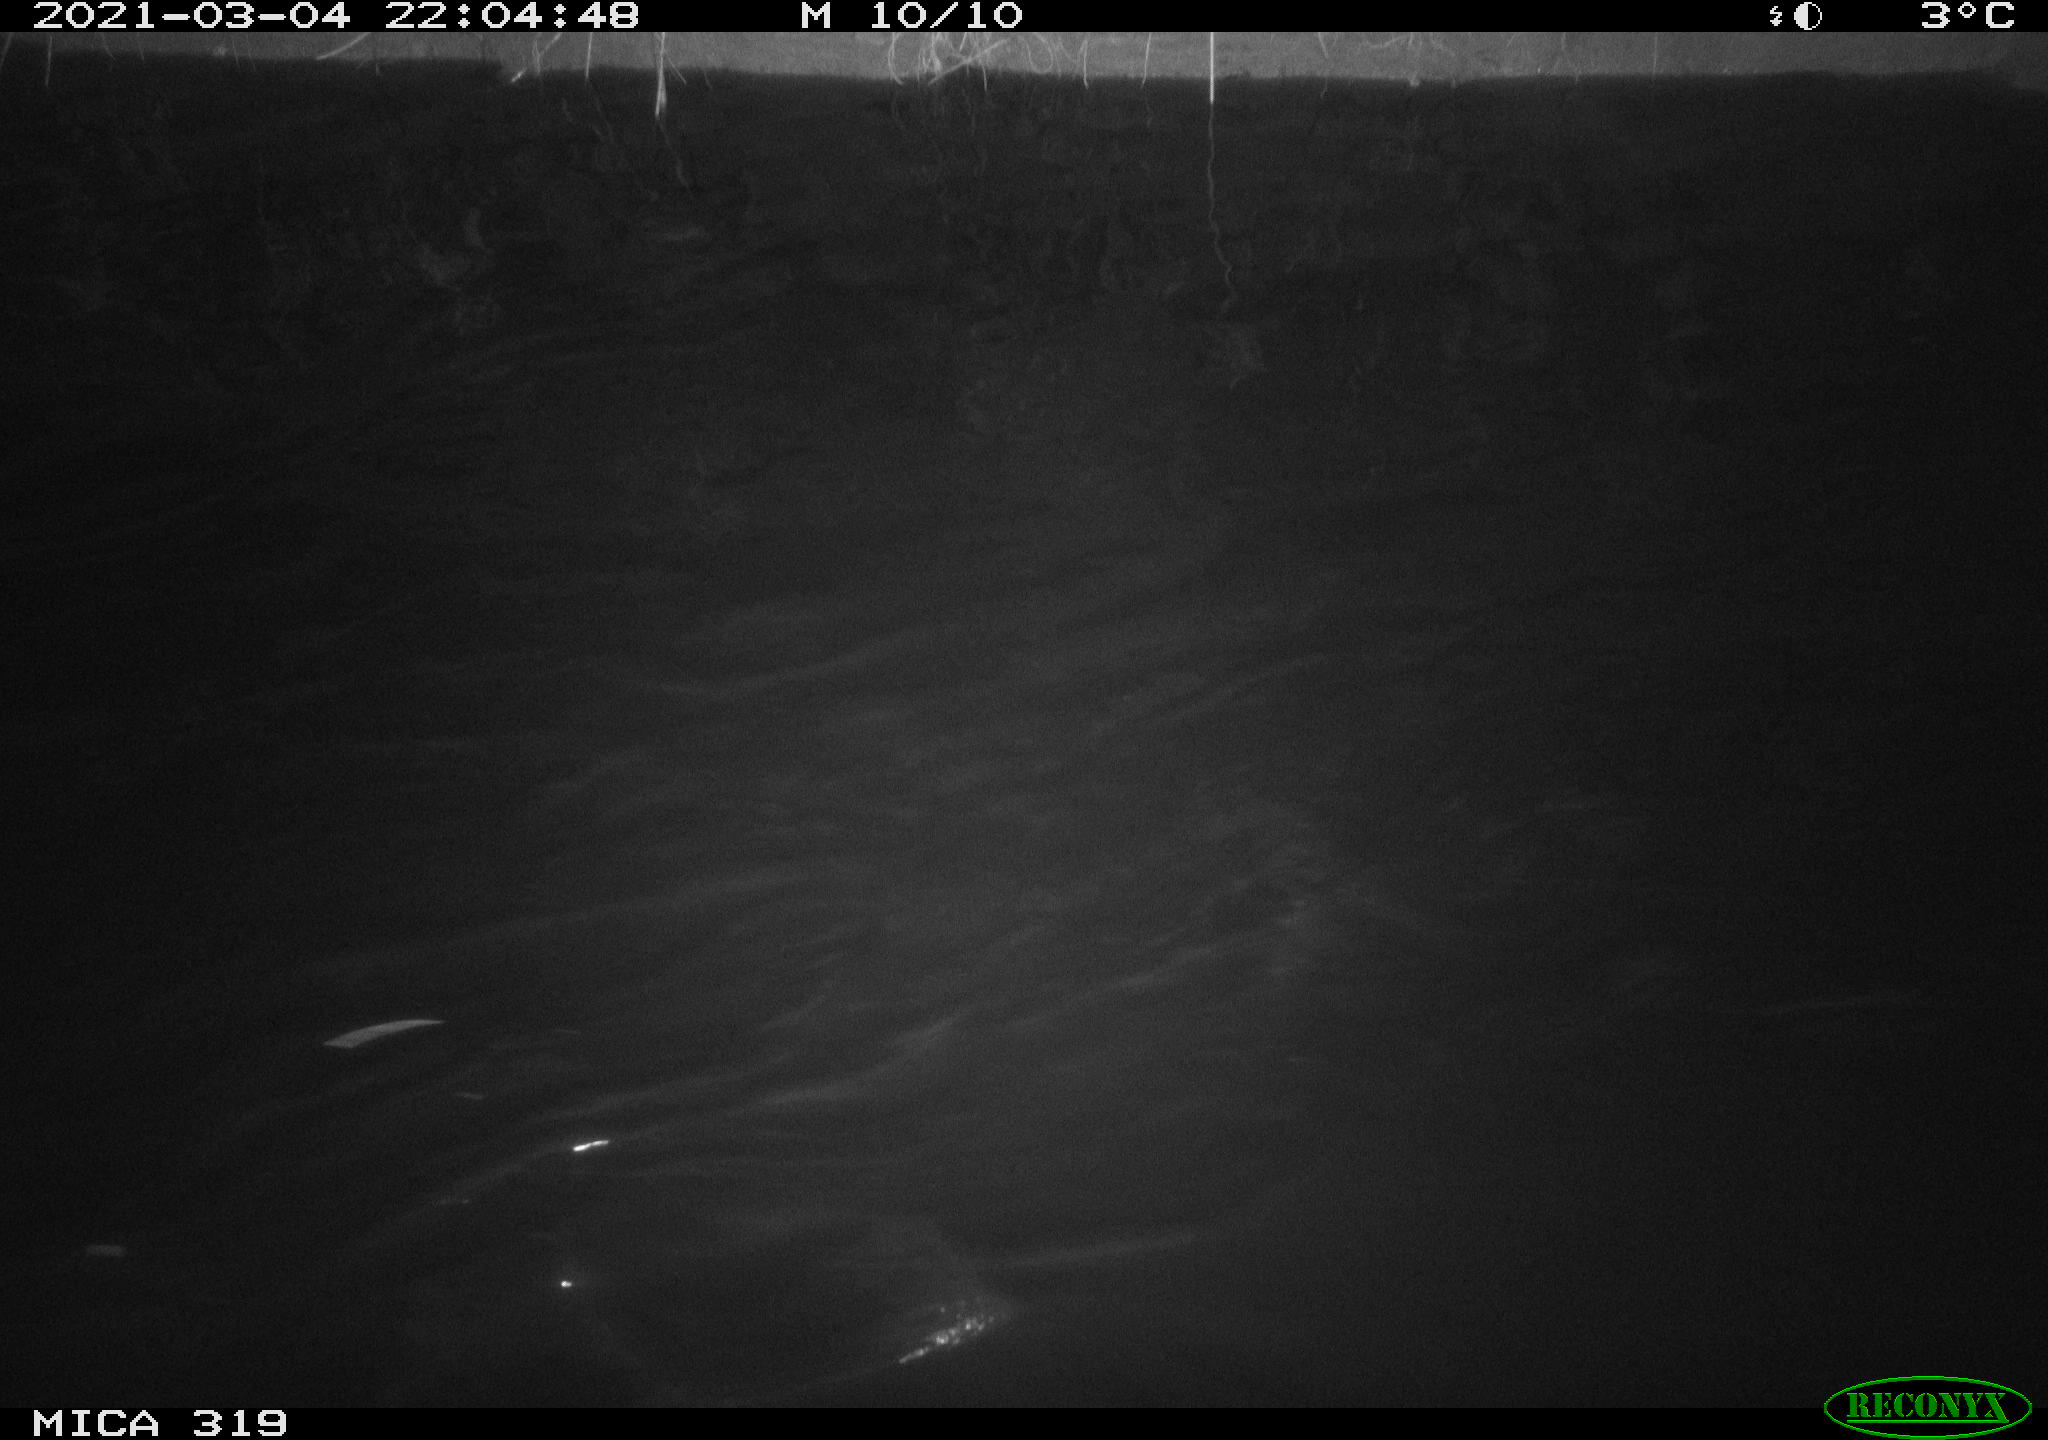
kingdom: Animalia
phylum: Chordata
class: Mammalia
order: Rodentia
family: Muridae
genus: Rattus
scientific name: Rattus norvegicus
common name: Brown rat
